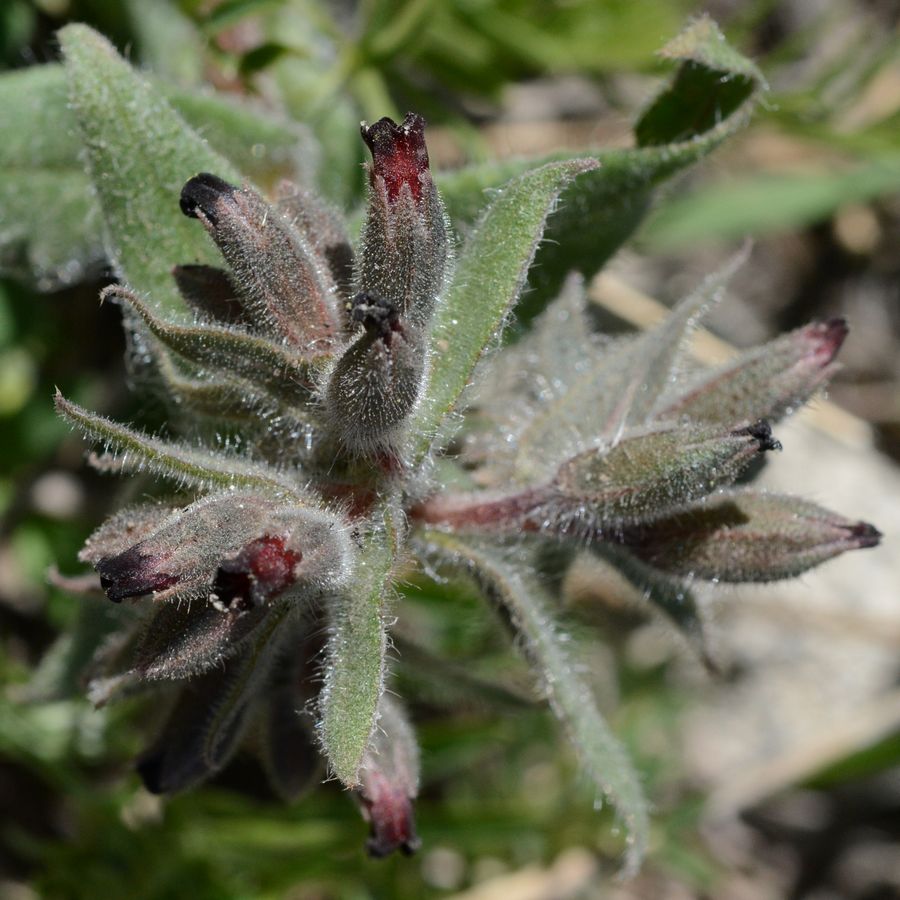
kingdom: Plantae
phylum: Tracheophyta
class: Magnoliopsida
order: Boraginales
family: Boraginaceae
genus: Nonea
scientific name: Nonea armeniaca
